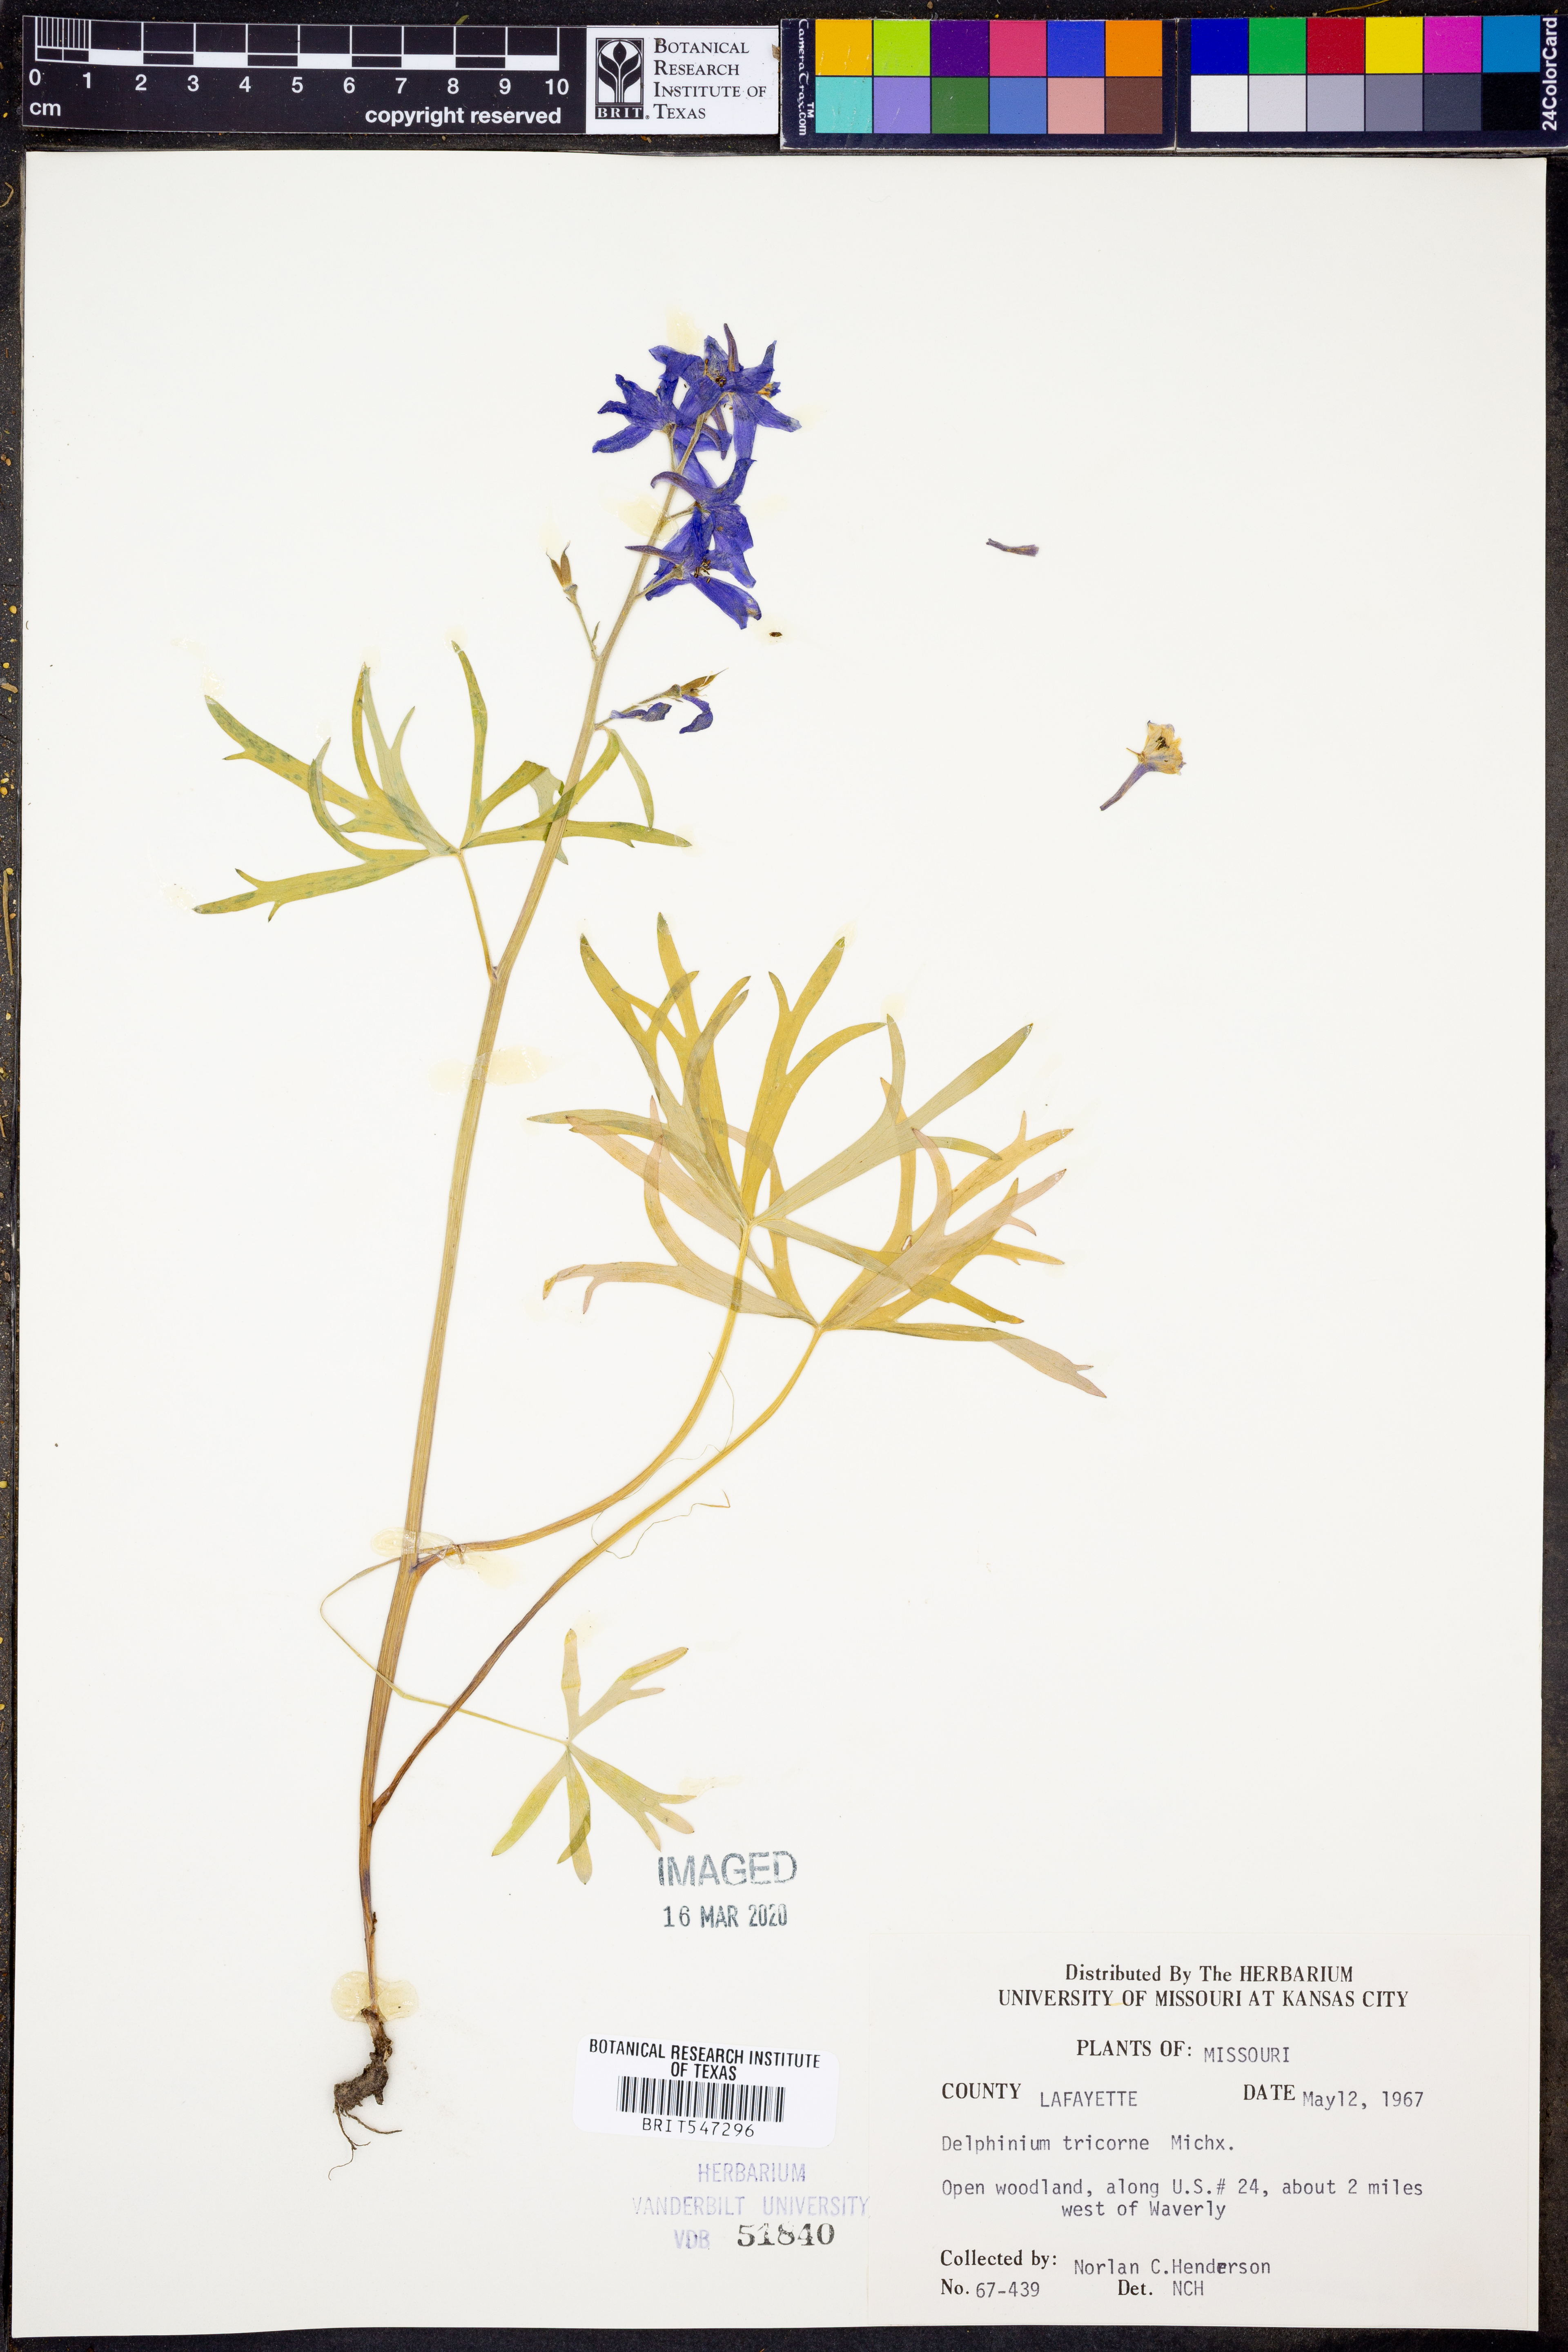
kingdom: Plantae
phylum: Tracheophyta
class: Magnoliopsida
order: Ranunculales
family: Ranunculaceae
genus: Delphinium
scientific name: Delphinium tricorne
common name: Dwarf larkspur
